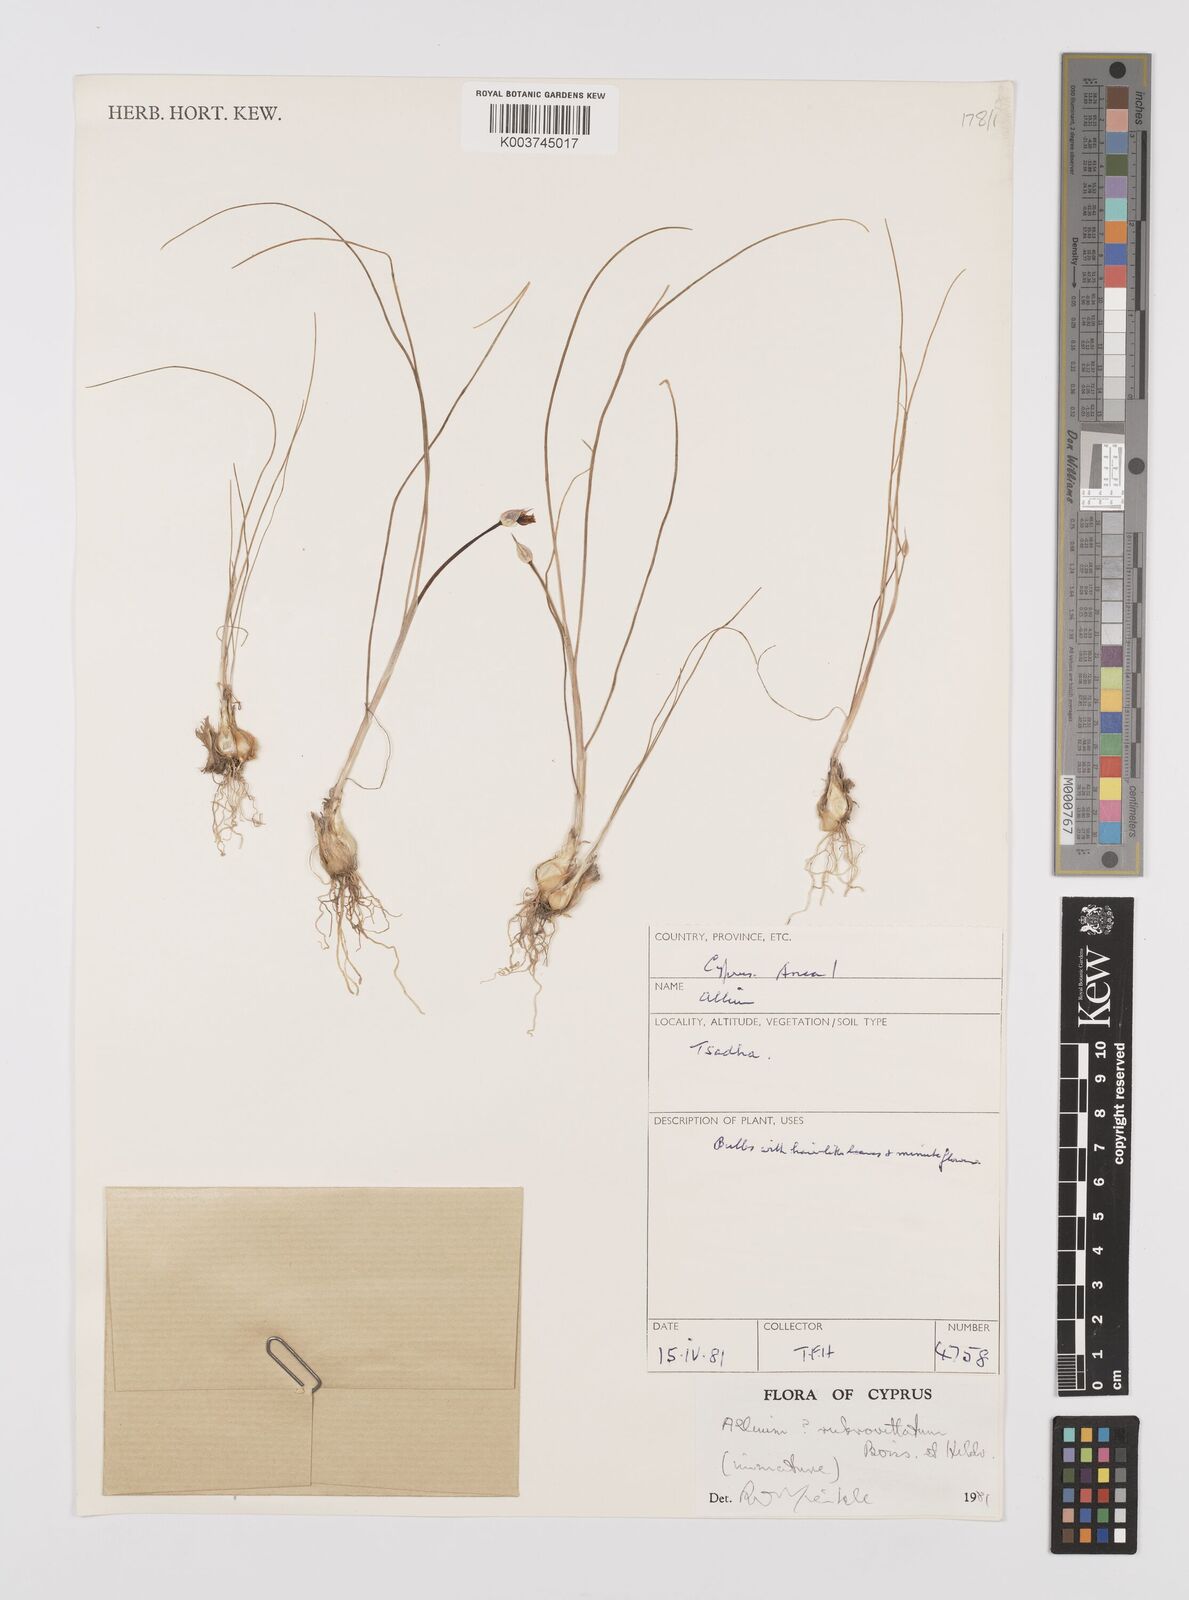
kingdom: Plantae
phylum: Tracheophyta
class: Liliopsida
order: Asparagales
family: Amaryllidaceae
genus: Allium
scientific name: Allium rubrovittatum
